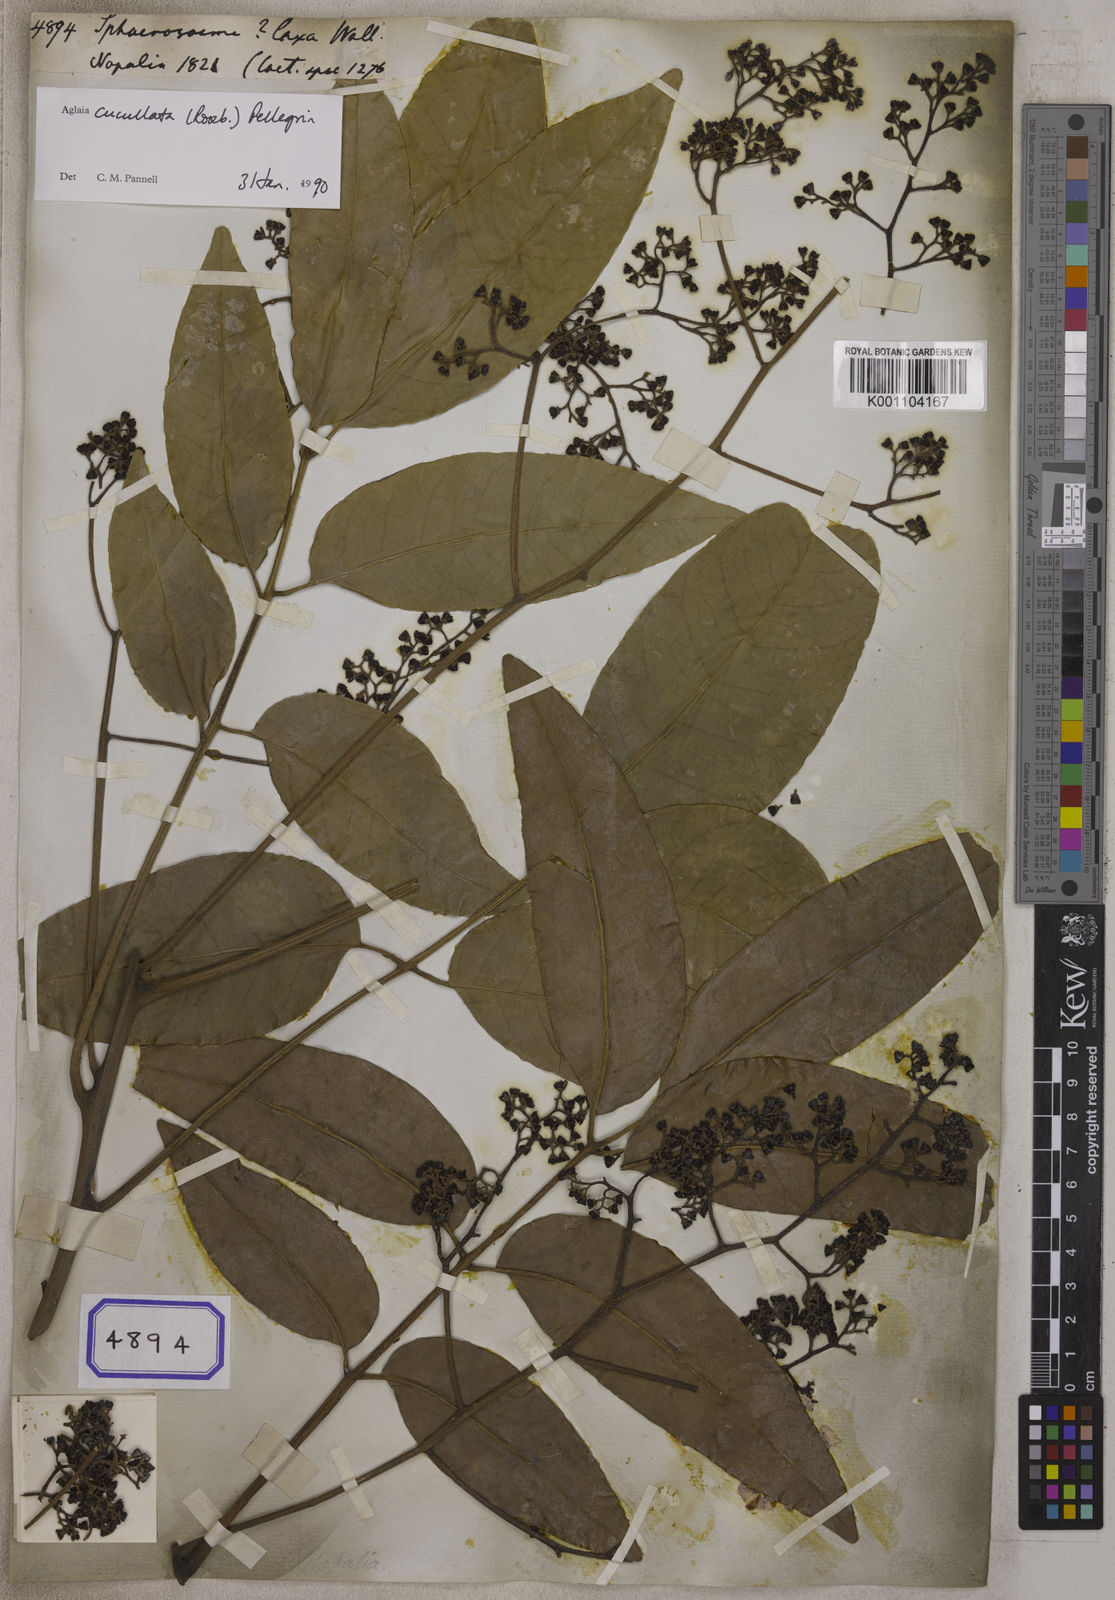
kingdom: Plantae
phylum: Tracheophyta
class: Magnoliopsida
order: Sapindales
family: Meliaceae
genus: Aglaia
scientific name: Aglaia cucullata
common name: Pacific maple
